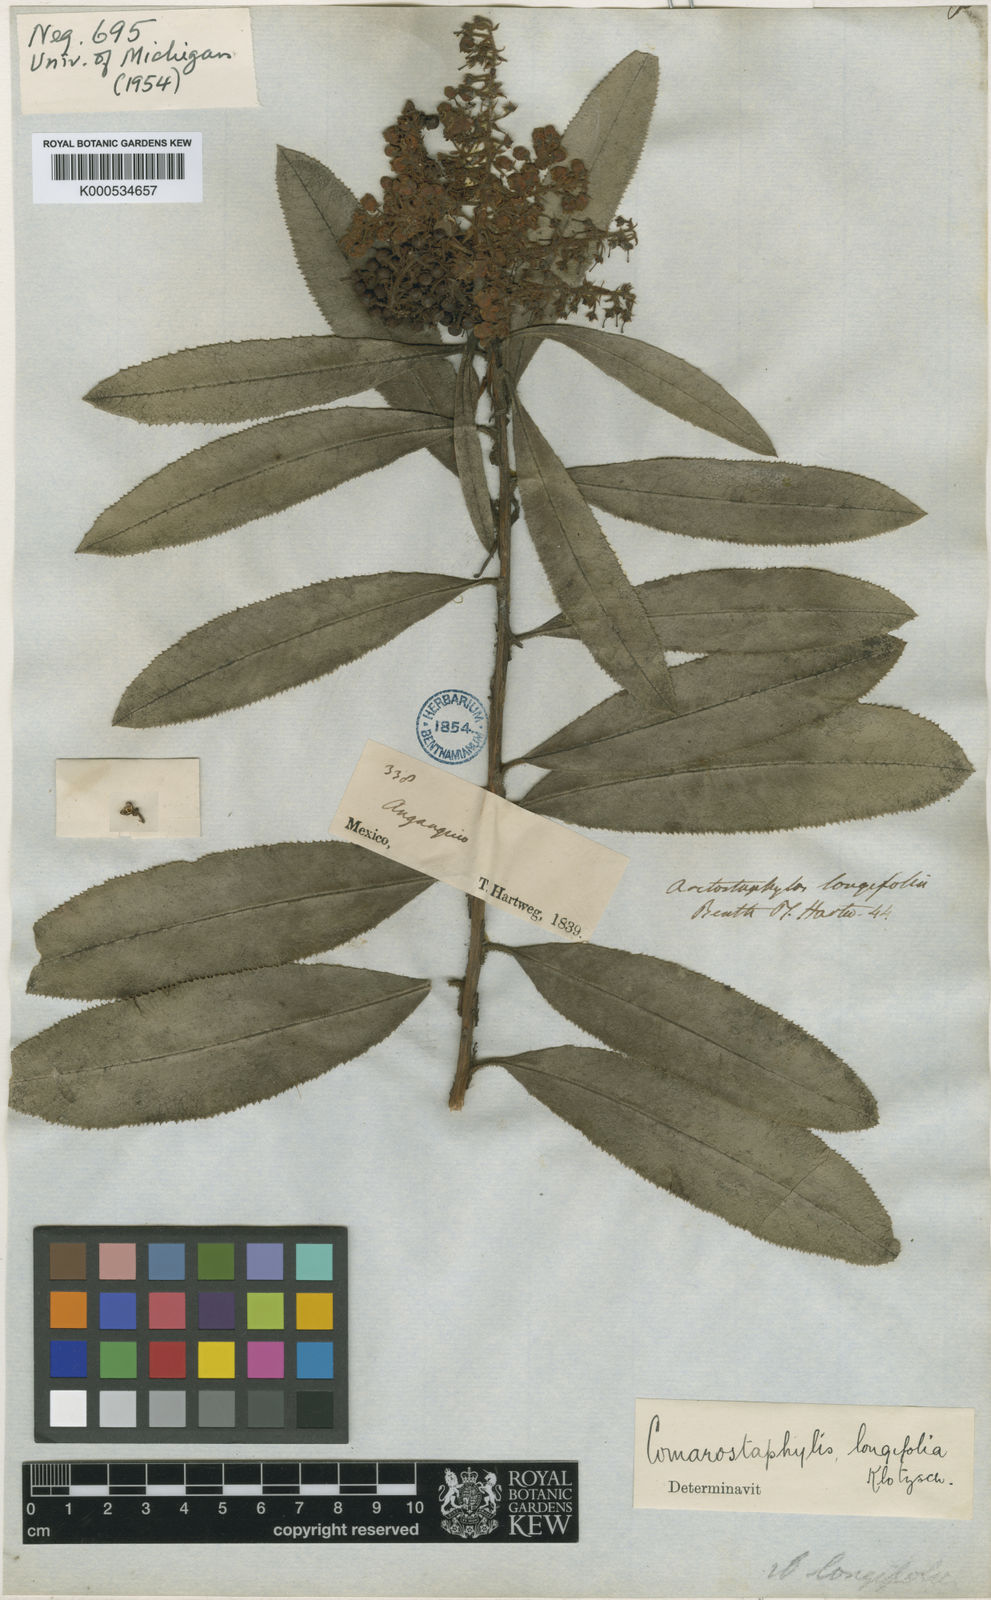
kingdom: Plantae
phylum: Tracheophyta
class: Magnoliopsida
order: Ericales
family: Ericaceae
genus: Comarostaphylis
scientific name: Comarostaphylis longifolia
